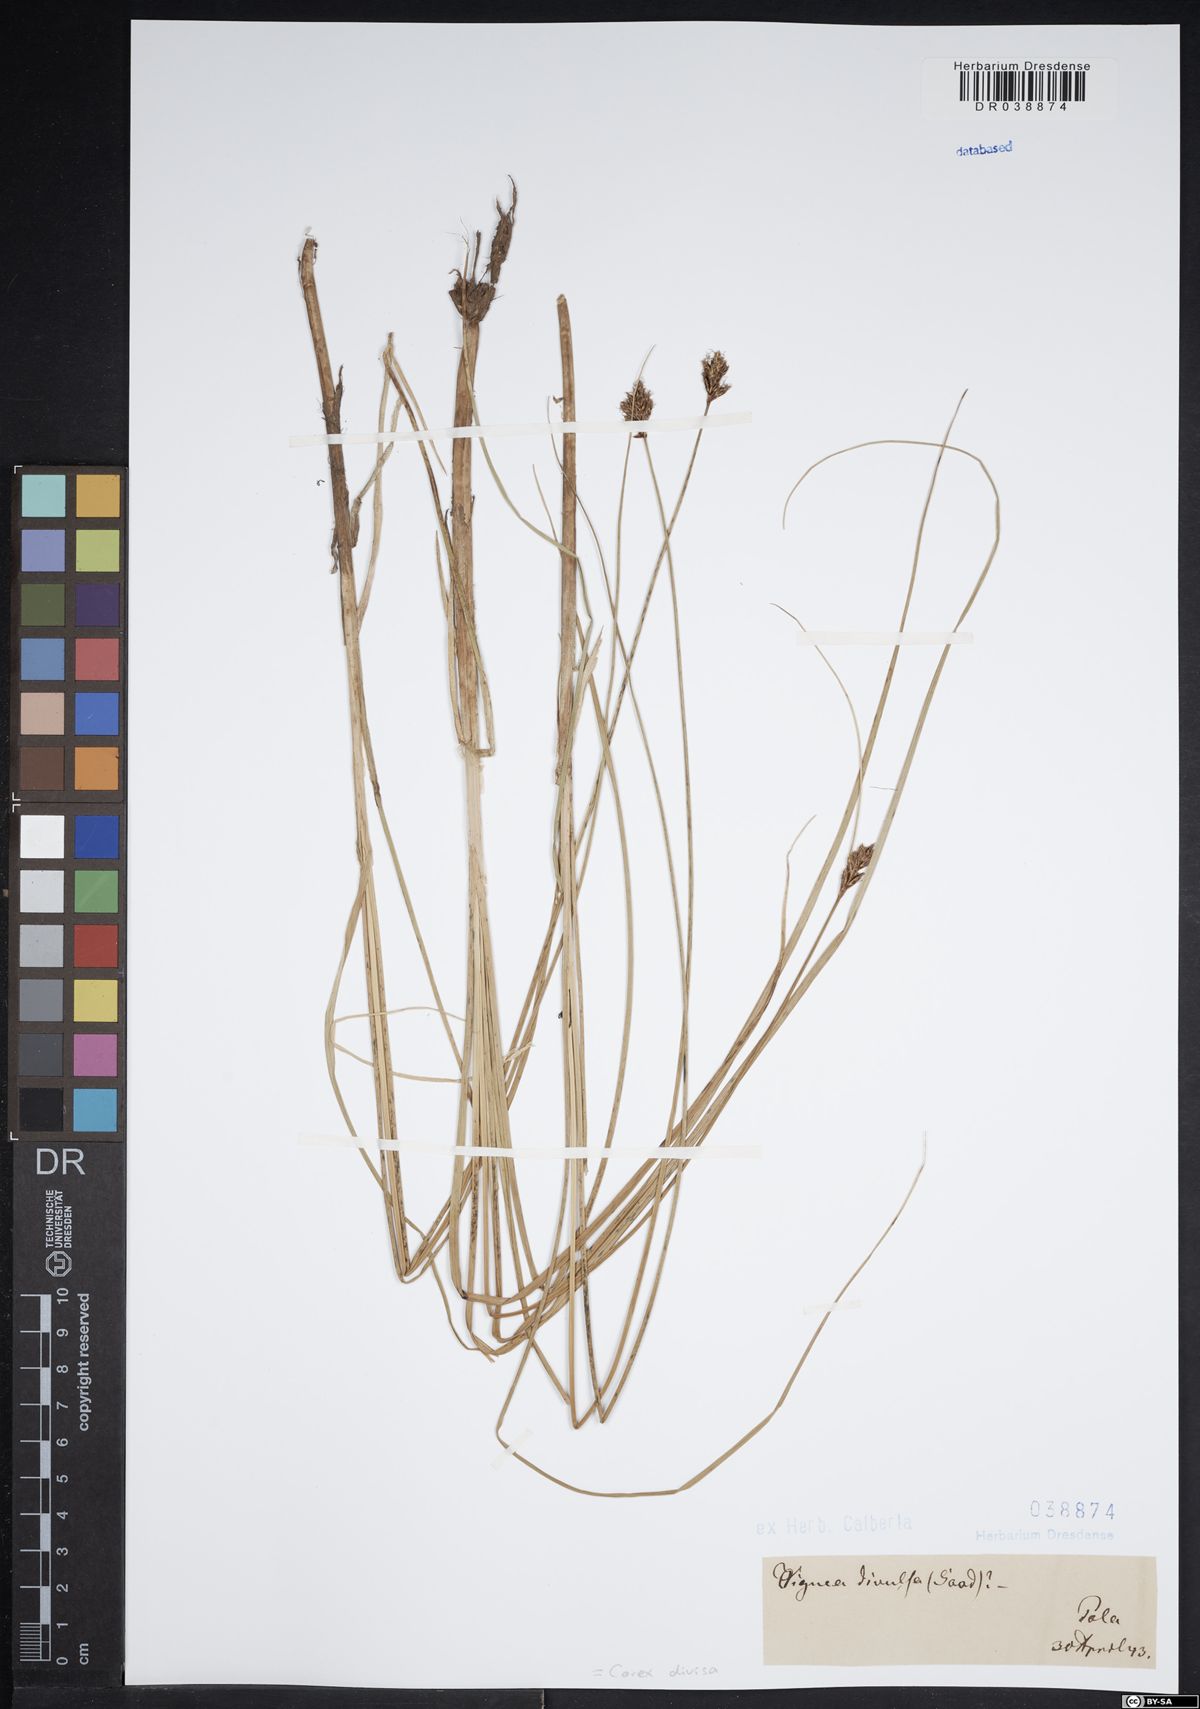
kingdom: Plantae
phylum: Tracheophyta
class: Liliopsida
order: Poales
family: Cyperaceae
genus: Carex
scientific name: Carex divisa
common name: Divided sedge
